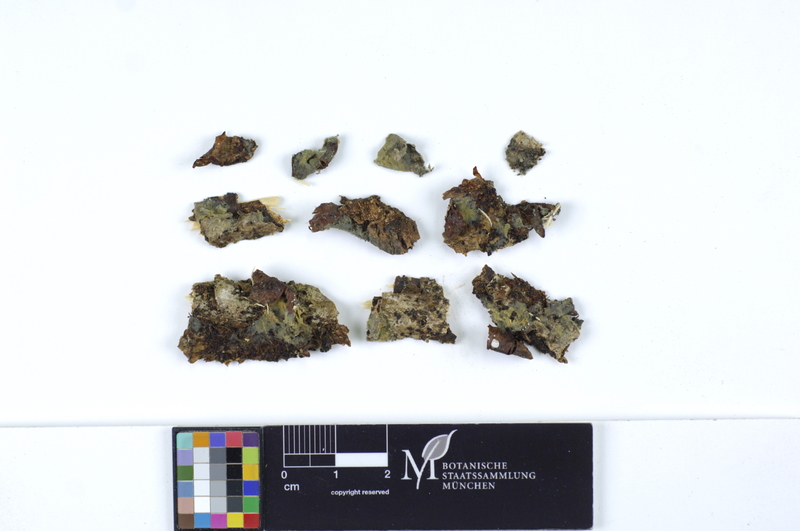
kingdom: Fungi
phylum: Basidiomycota
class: Agaricomycetes
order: Atheliales
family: Atheliaceae
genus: Byssocorticium
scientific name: Byssocorticium atrovirens
